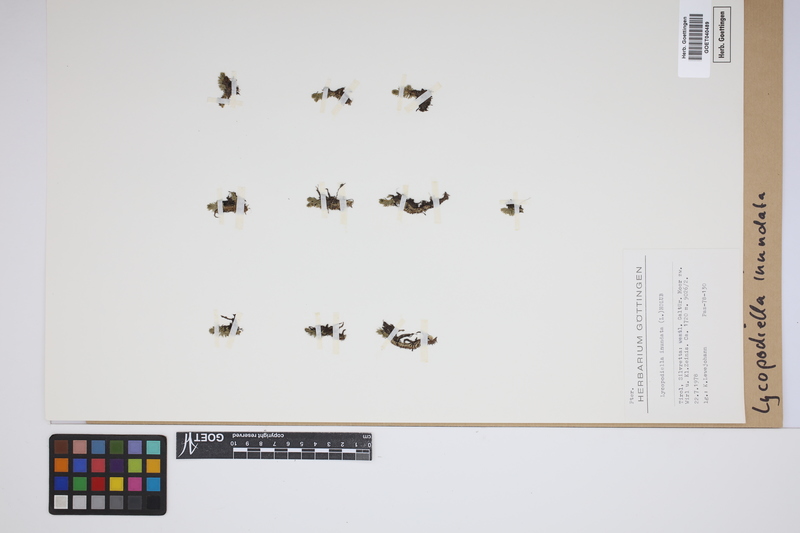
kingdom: Plantae
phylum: Tracheophyta
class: Lycopodiopsida
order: Lycopodiales
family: Lycopodiaceae
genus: Lycopodiella
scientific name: Lycopodiella inundata
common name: Marsh clubmoss
